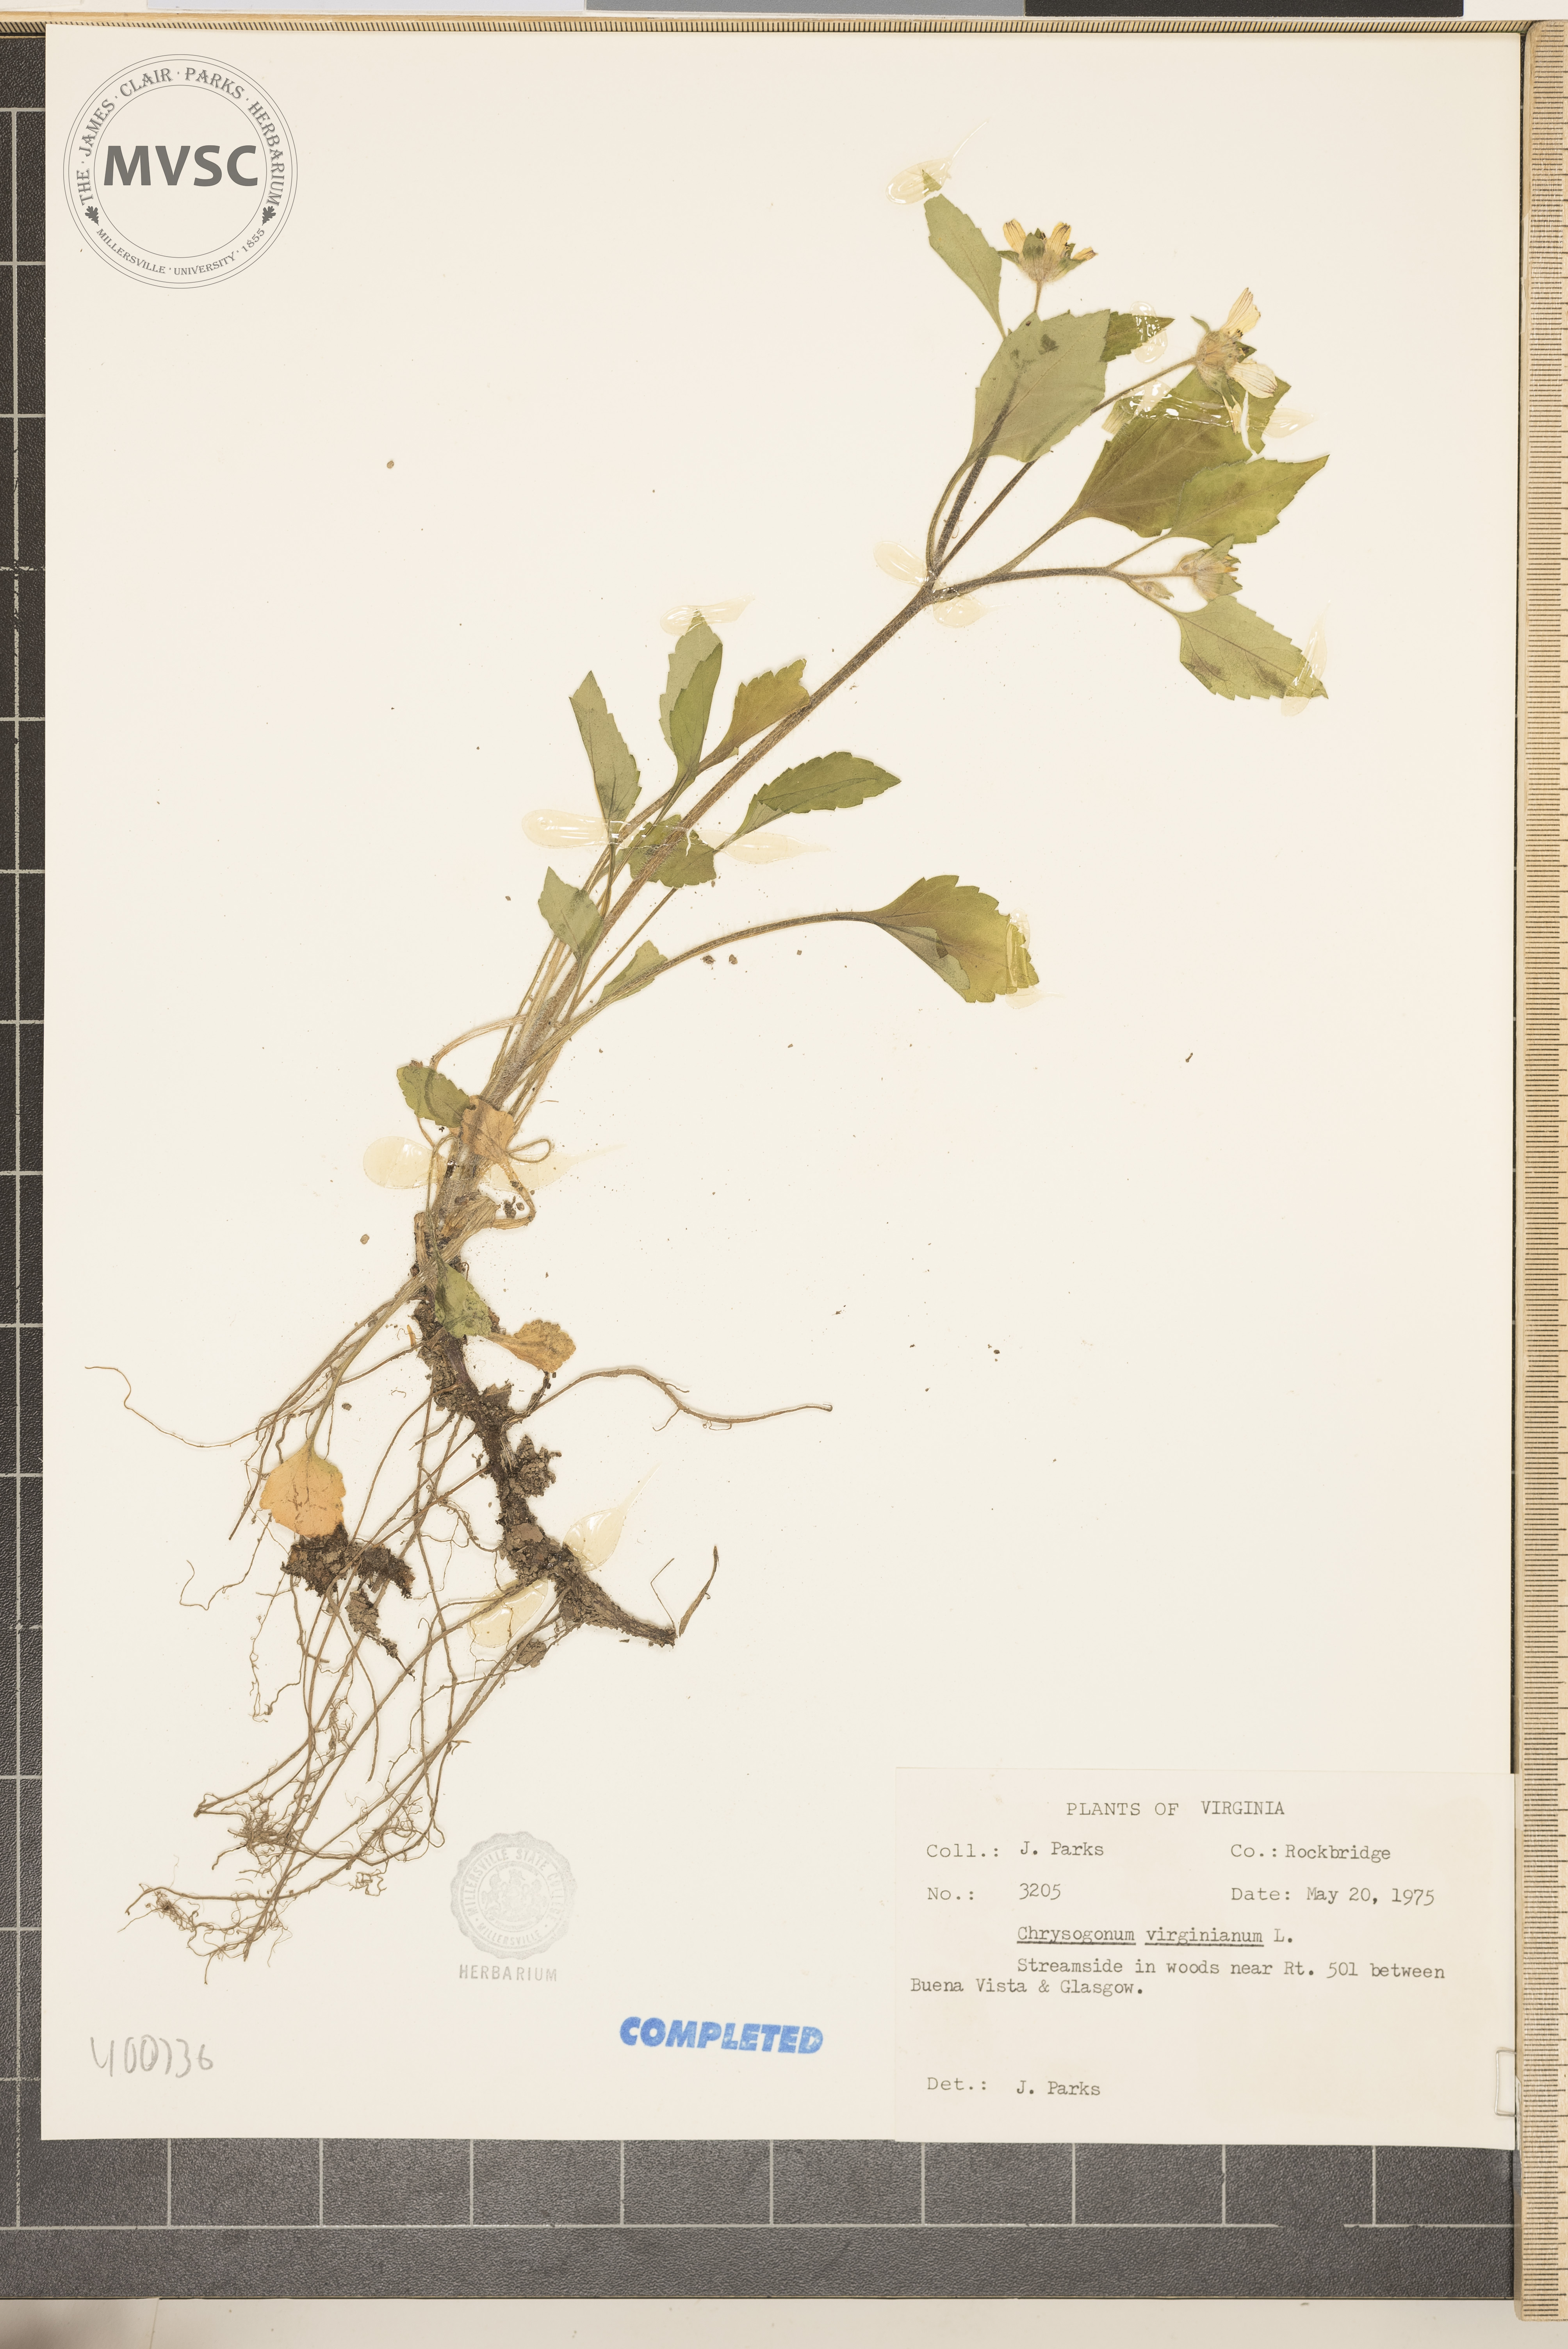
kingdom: Plantae
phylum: Tracheophyta
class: Magnoliopsida
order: Asterales
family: Asteraceae
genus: Chrysogonum
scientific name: Chrysogonum virginianum
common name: Golden-knee
